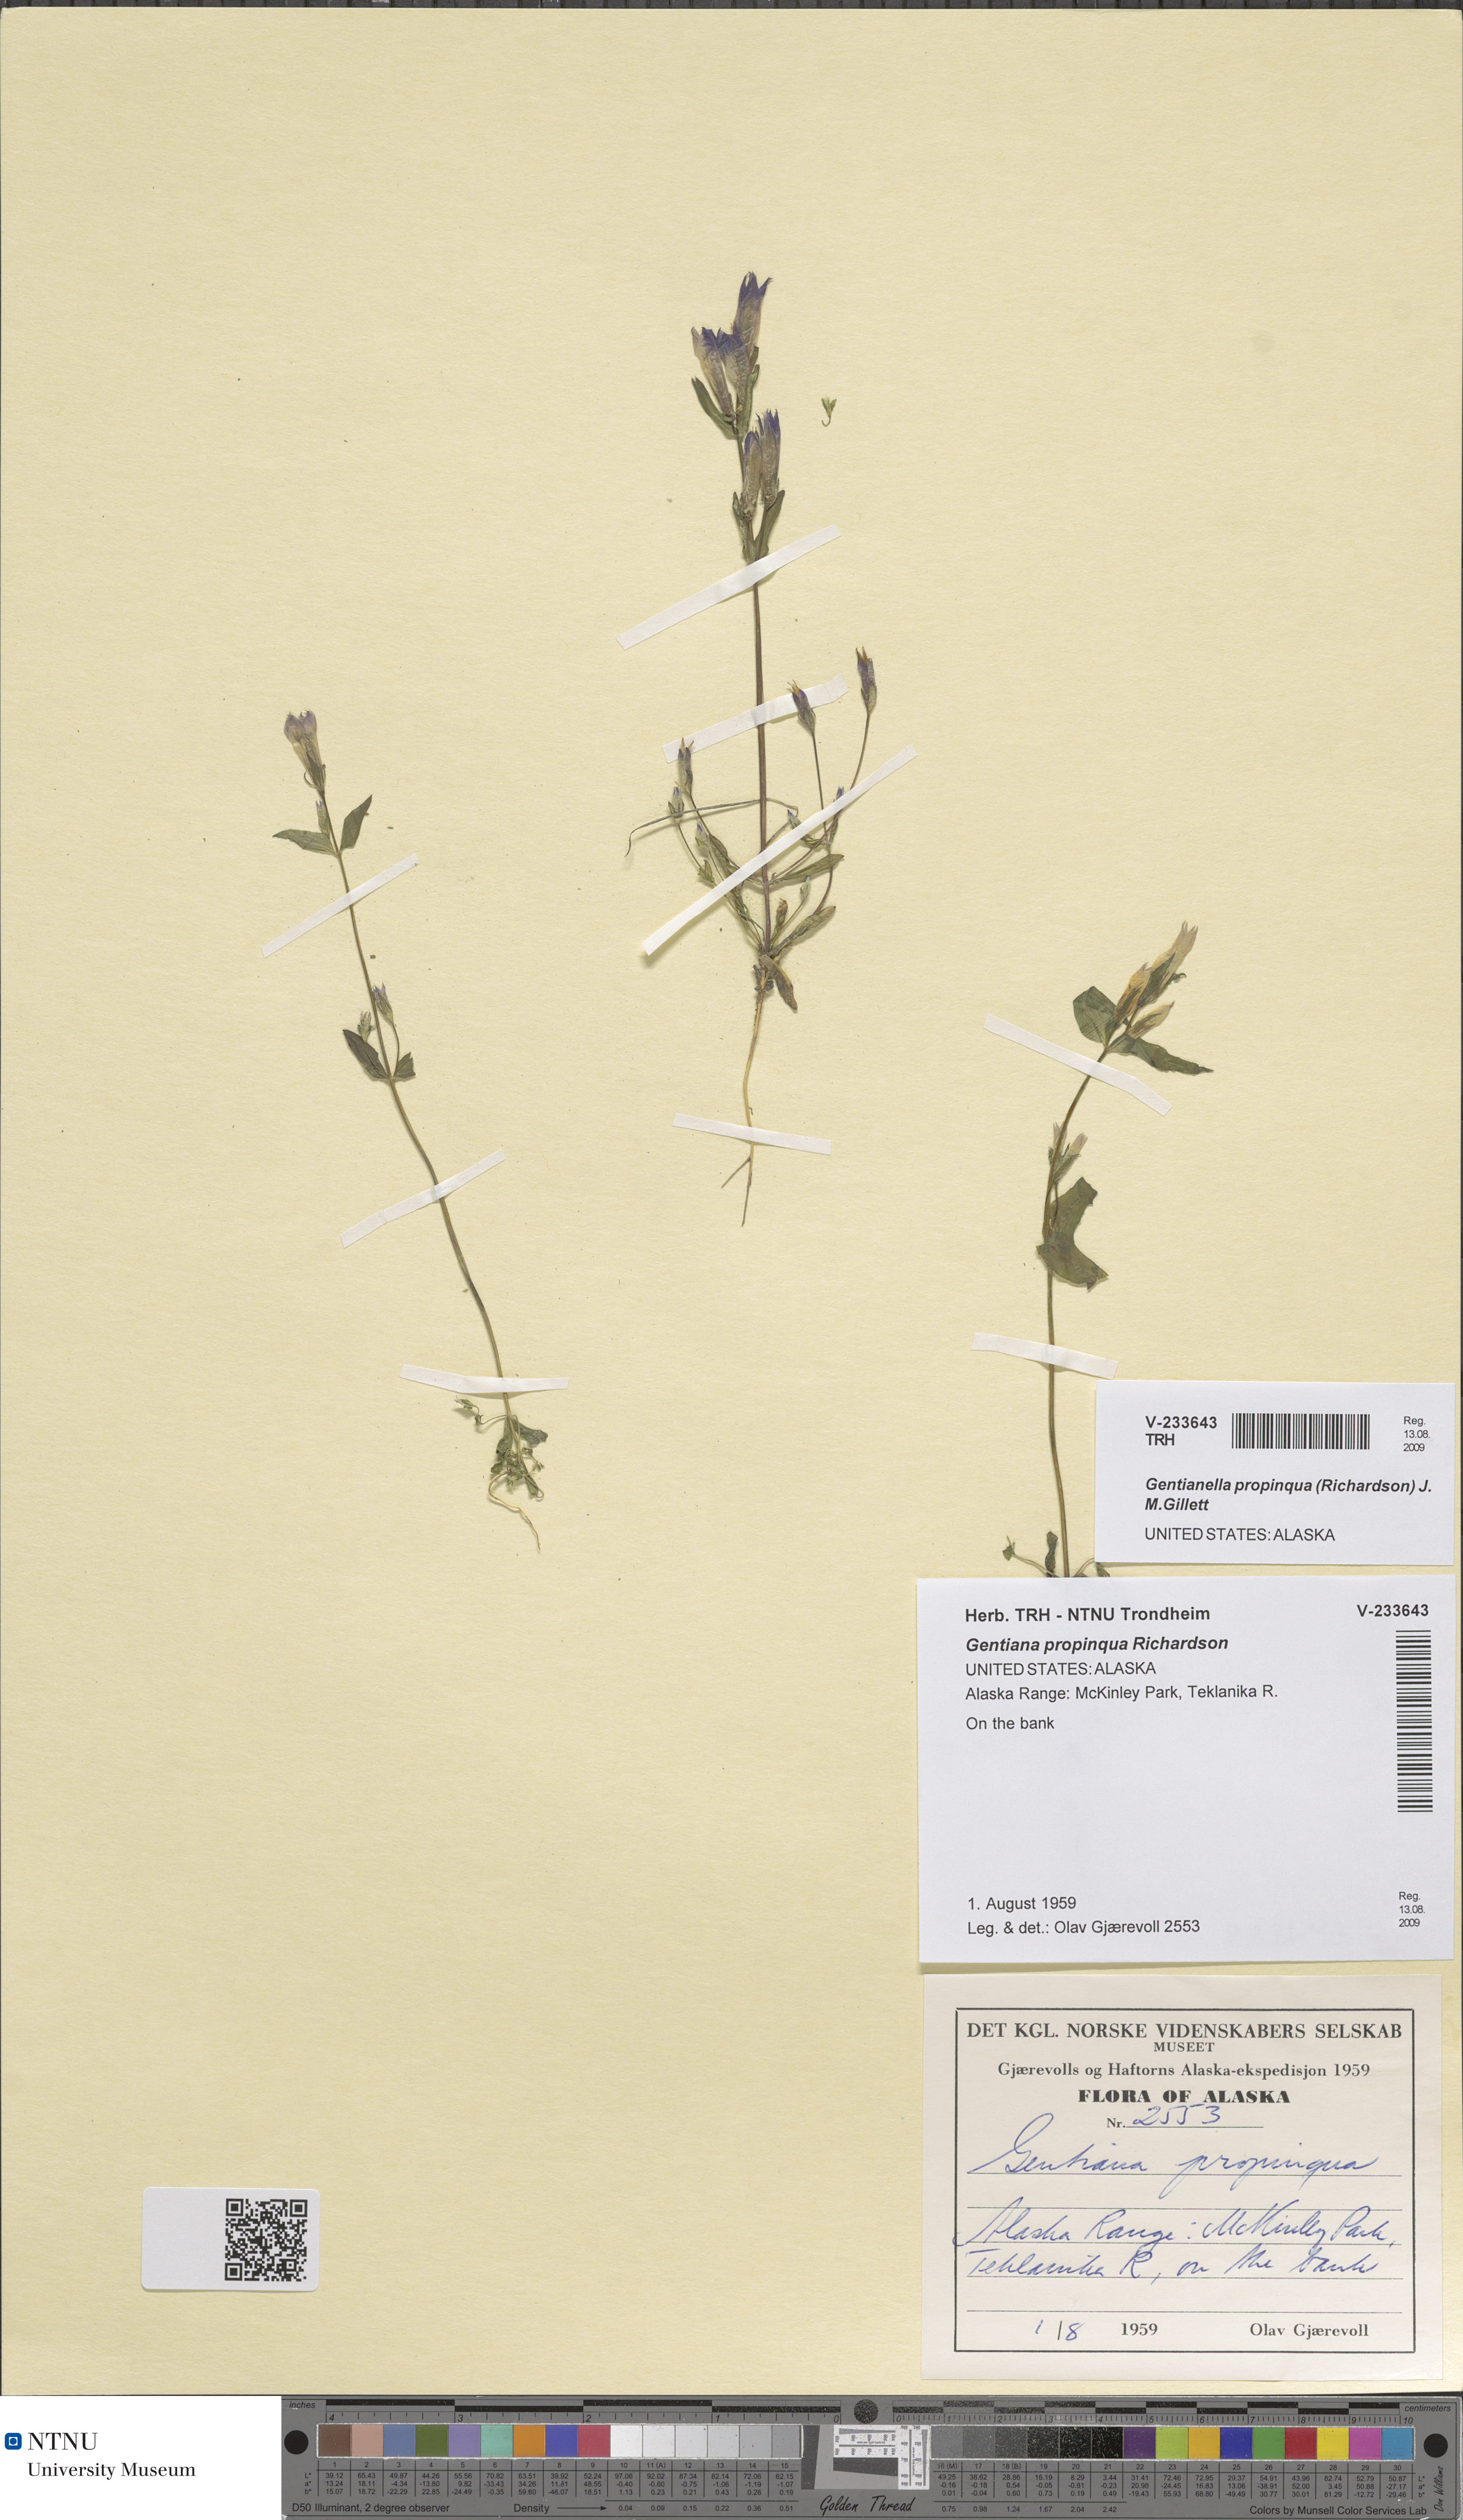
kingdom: Plantae
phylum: Tracheophyta
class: Magnoliopsida
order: Gentianales
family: Gentianaceae
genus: Gentianella
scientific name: Gentianella propinqua
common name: Four-parted dwarf-gentian
